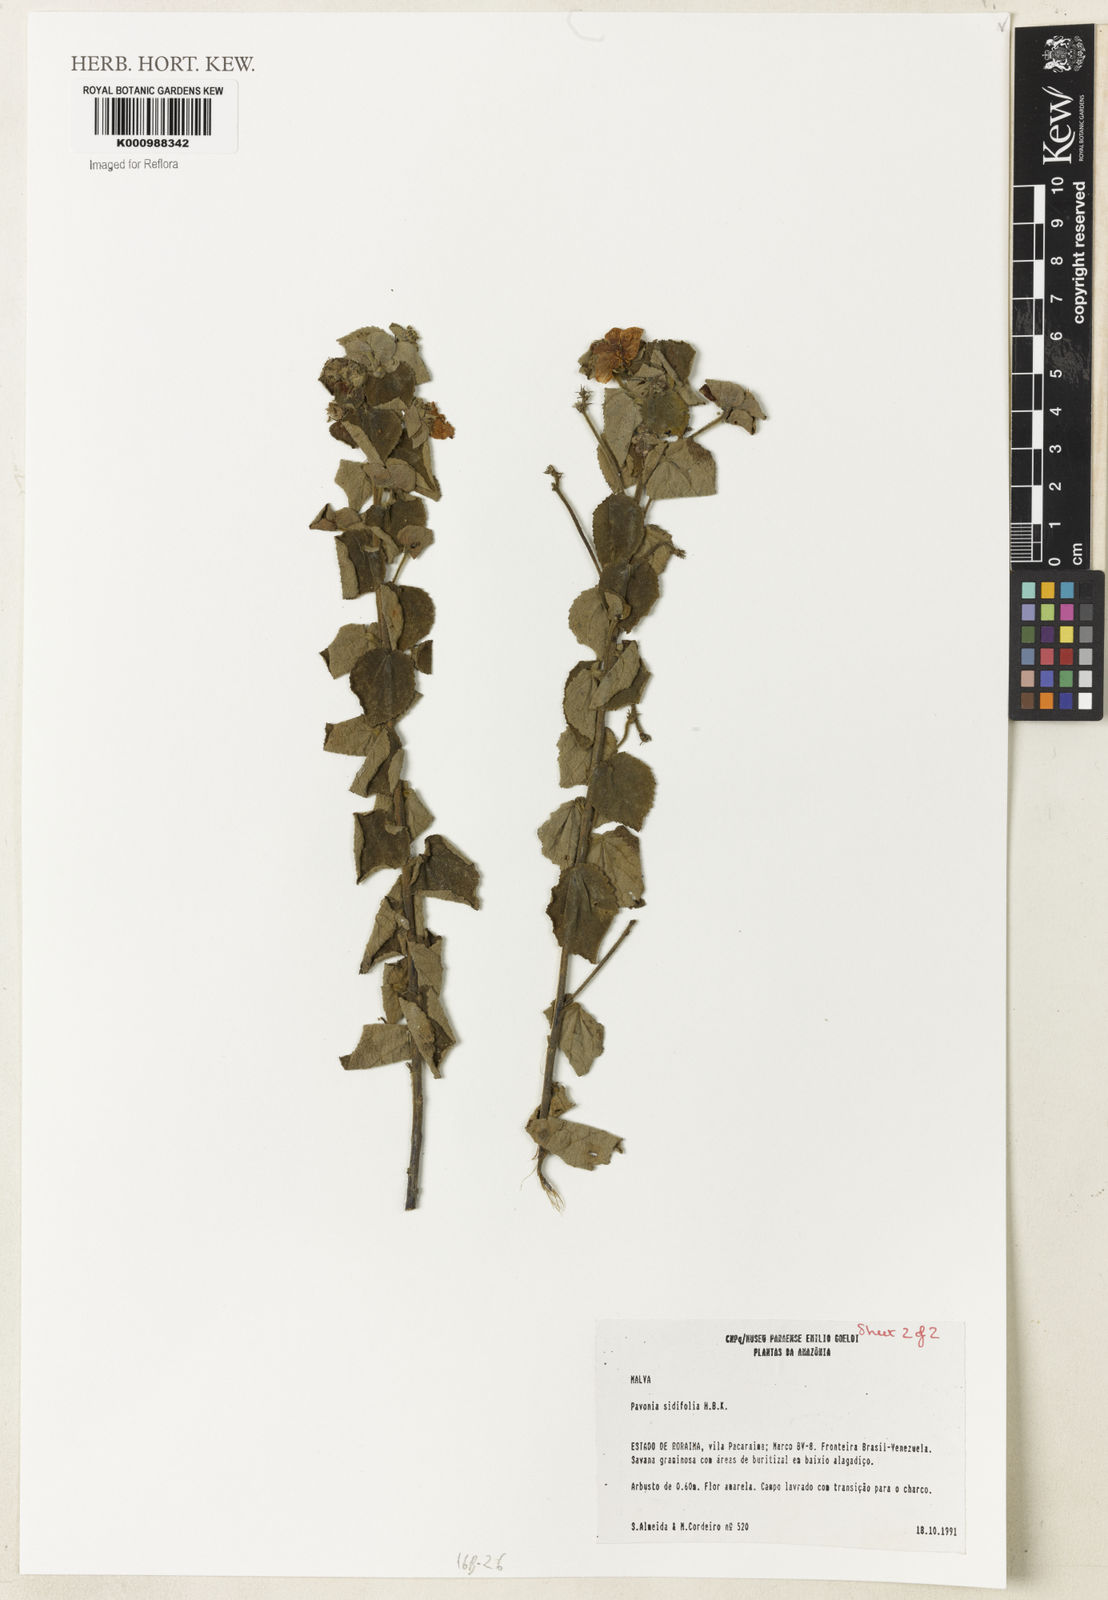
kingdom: Plantae
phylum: Tracheophyta
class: Magnoliopsida
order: Malvales
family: Malvaceae
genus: Pavonia
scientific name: Pavonia sidifolia
